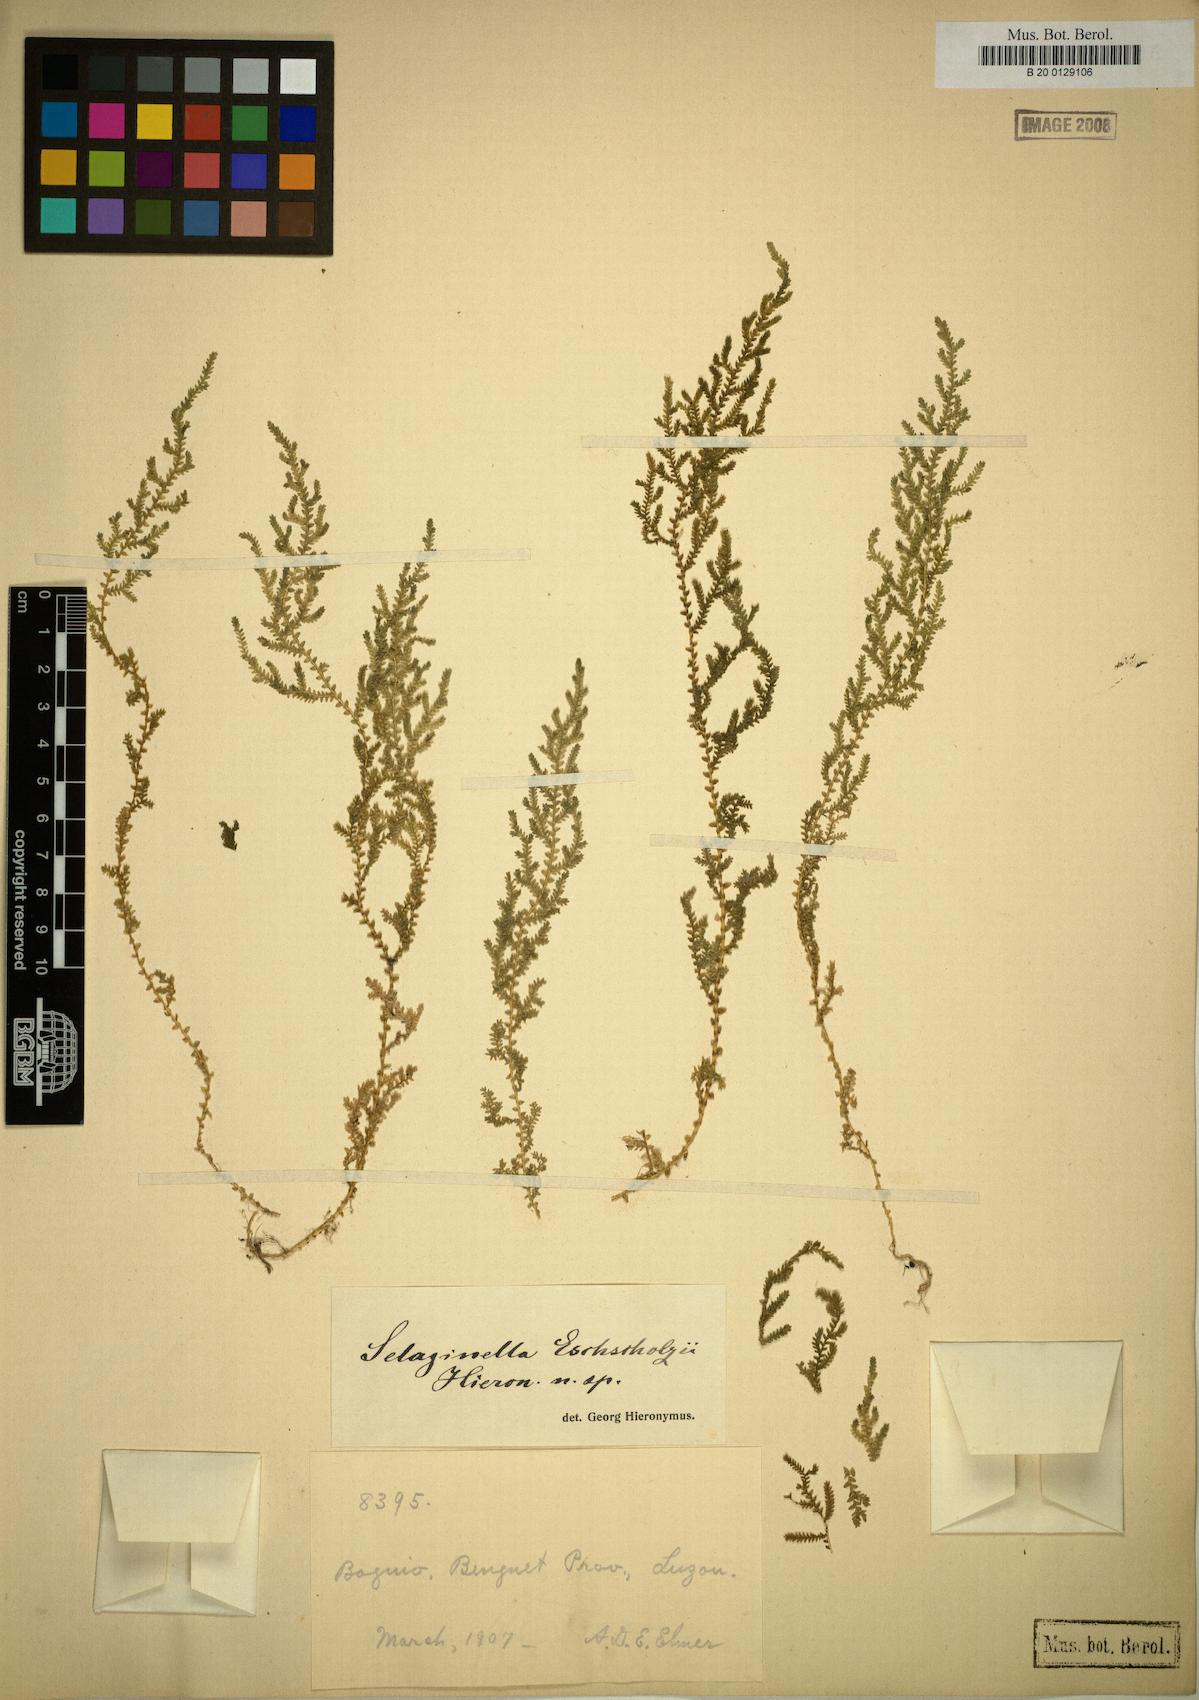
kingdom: Plantae
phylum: Tracheophyta
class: Lycopodiopsida
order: Selaginellales
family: Selaginellaceae
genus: Selaginella
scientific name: Selaginella eschscholzii
